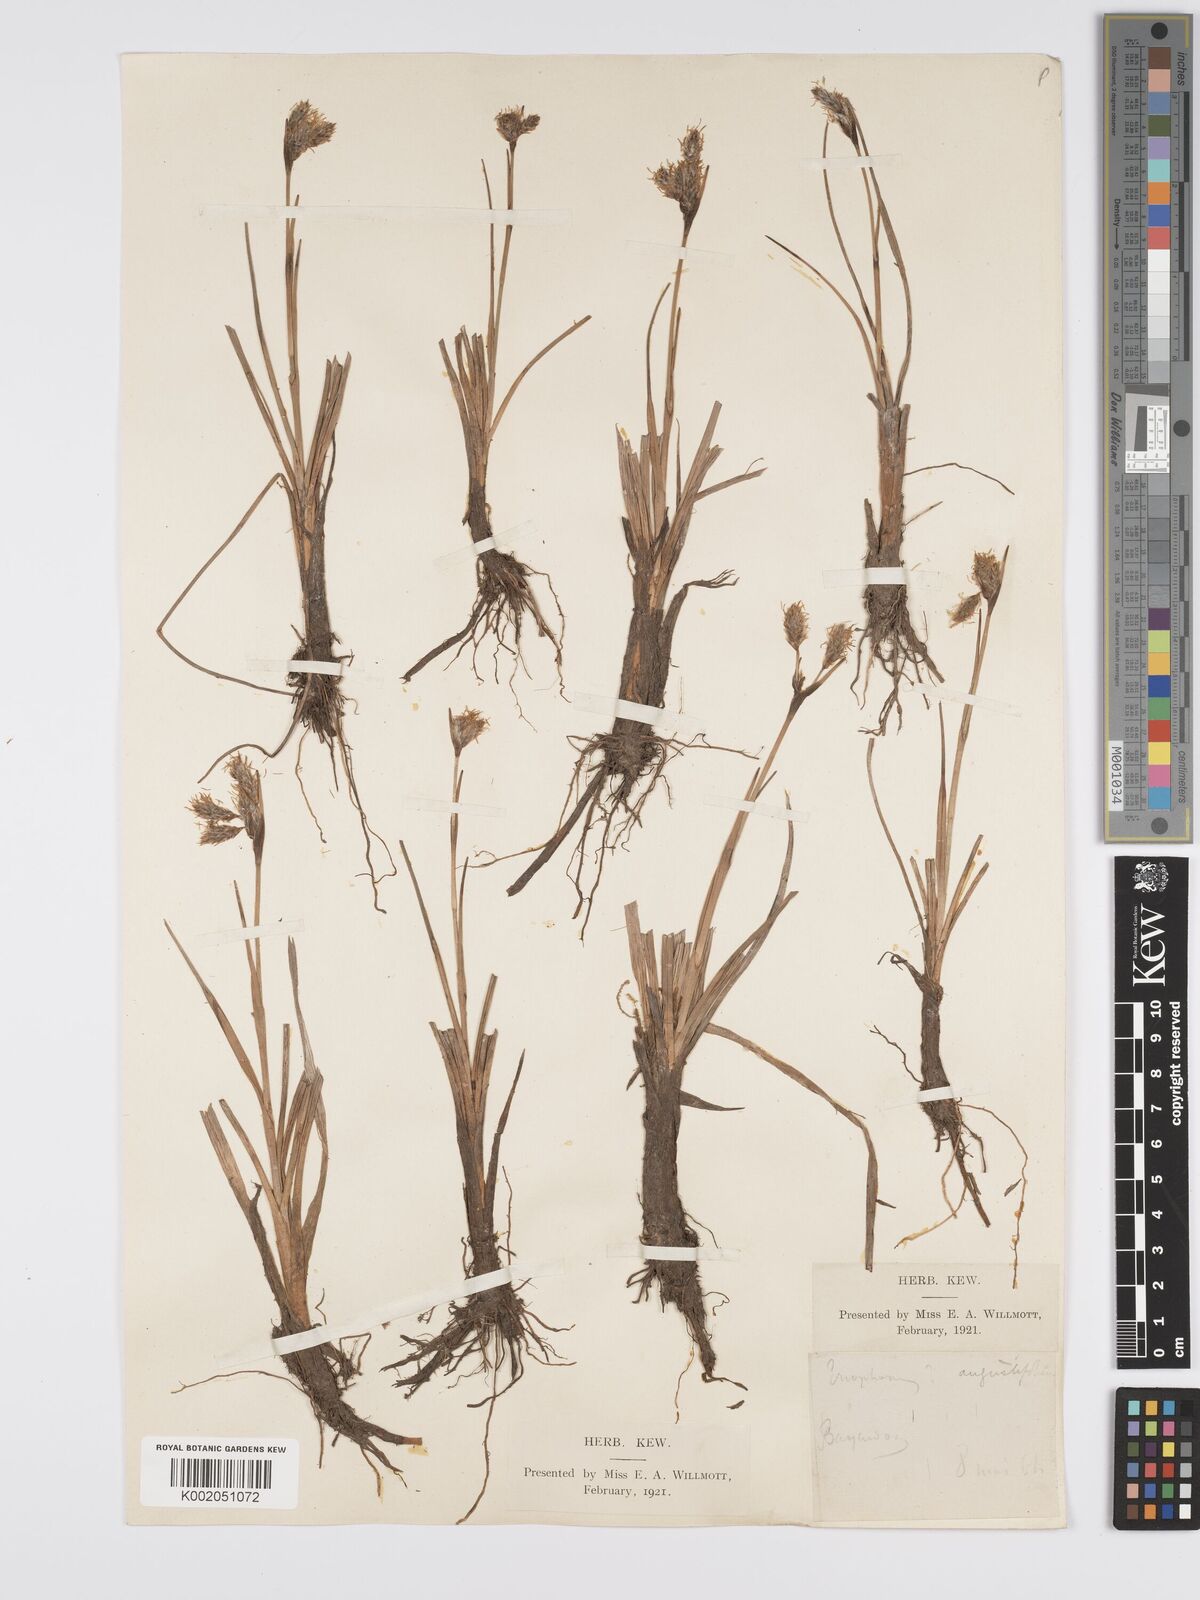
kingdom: Plantae
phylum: Tracheophyta
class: Liliopsida
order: Poales
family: Cyperaceae
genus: Eriophorum
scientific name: Eriophorum angustifolium
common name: Common cottongrass
